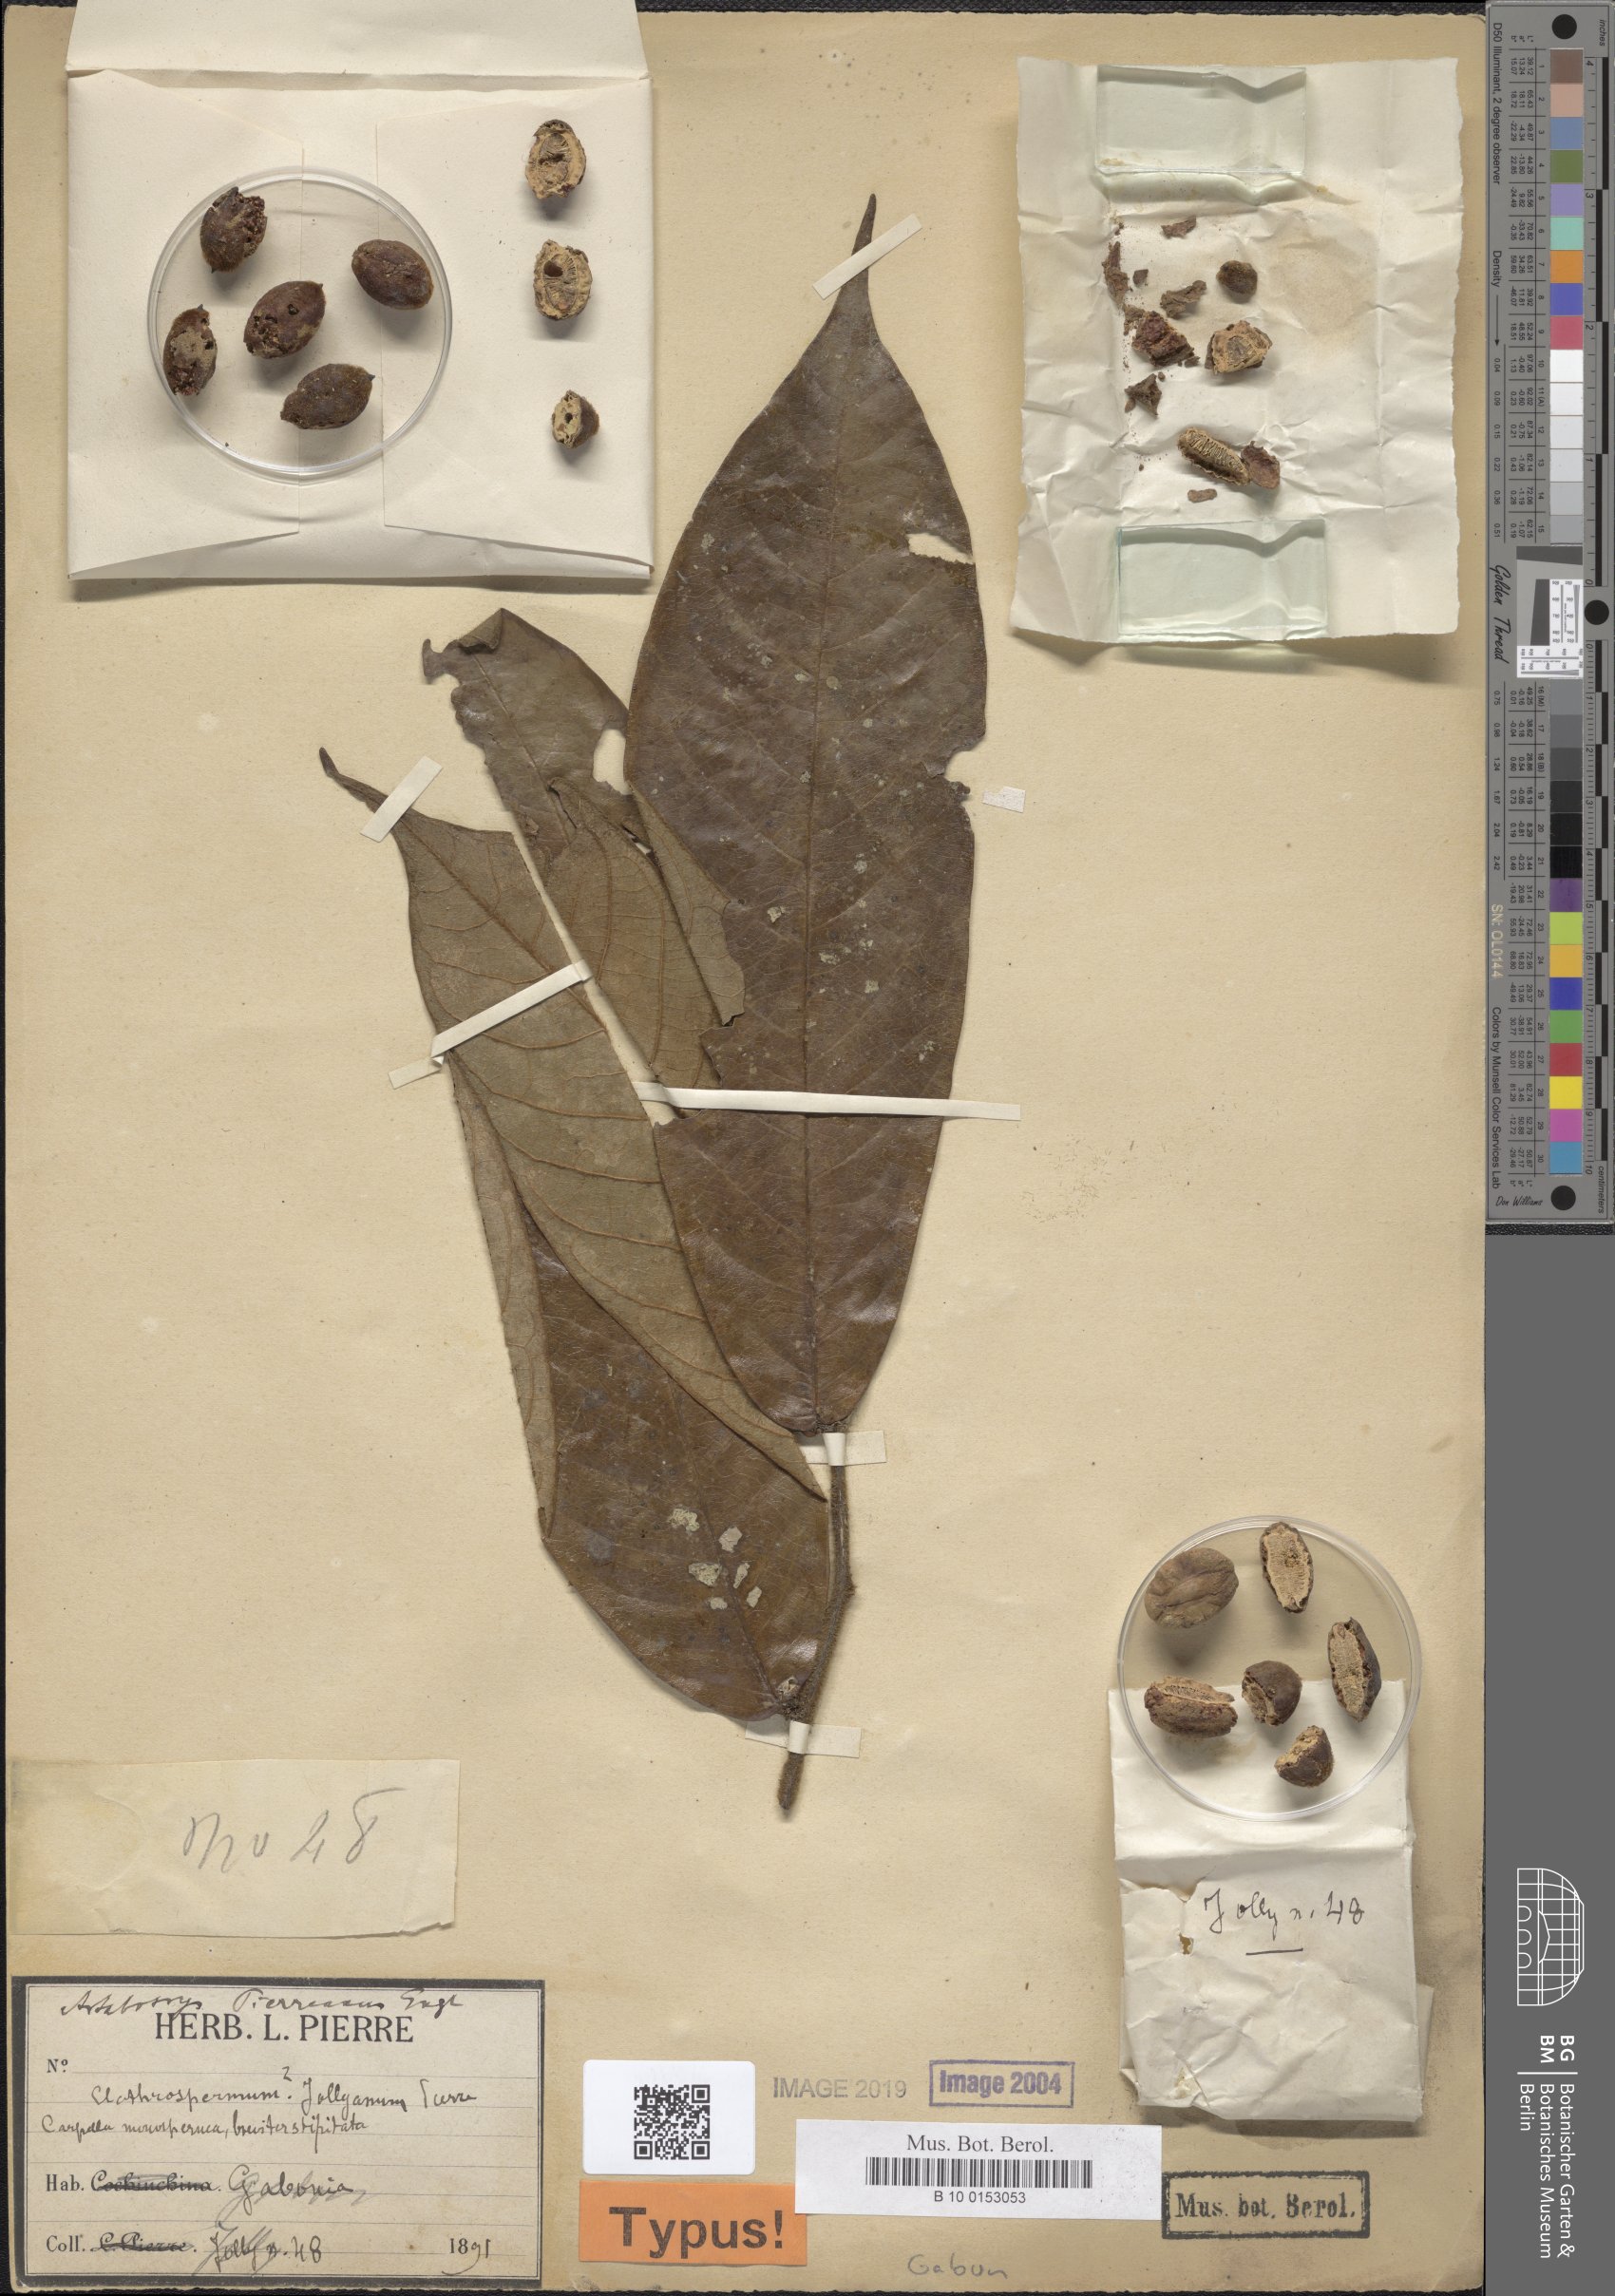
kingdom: Plantae
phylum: Tracheophyta
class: Magnoliopsida
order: Magnoliales
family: Annonaceae
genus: Artabotrys
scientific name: Artabotrys pierreanus
